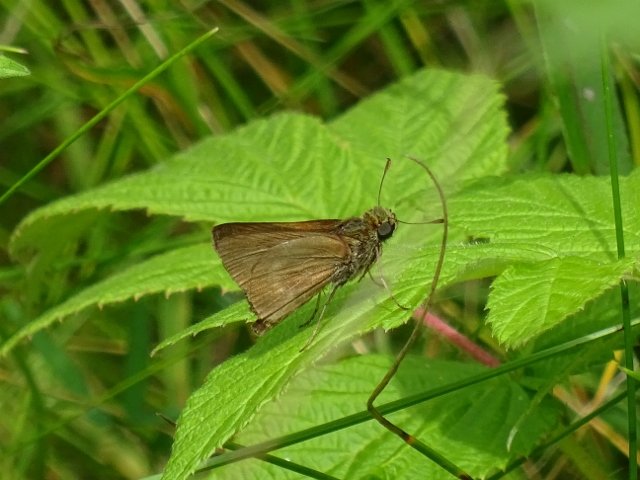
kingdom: Animalia
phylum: Arthropoda
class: Insecta
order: Lepidoptera
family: Hesperiidae
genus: Polites
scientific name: Polites egeremet
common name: Northern Broken-Dash
